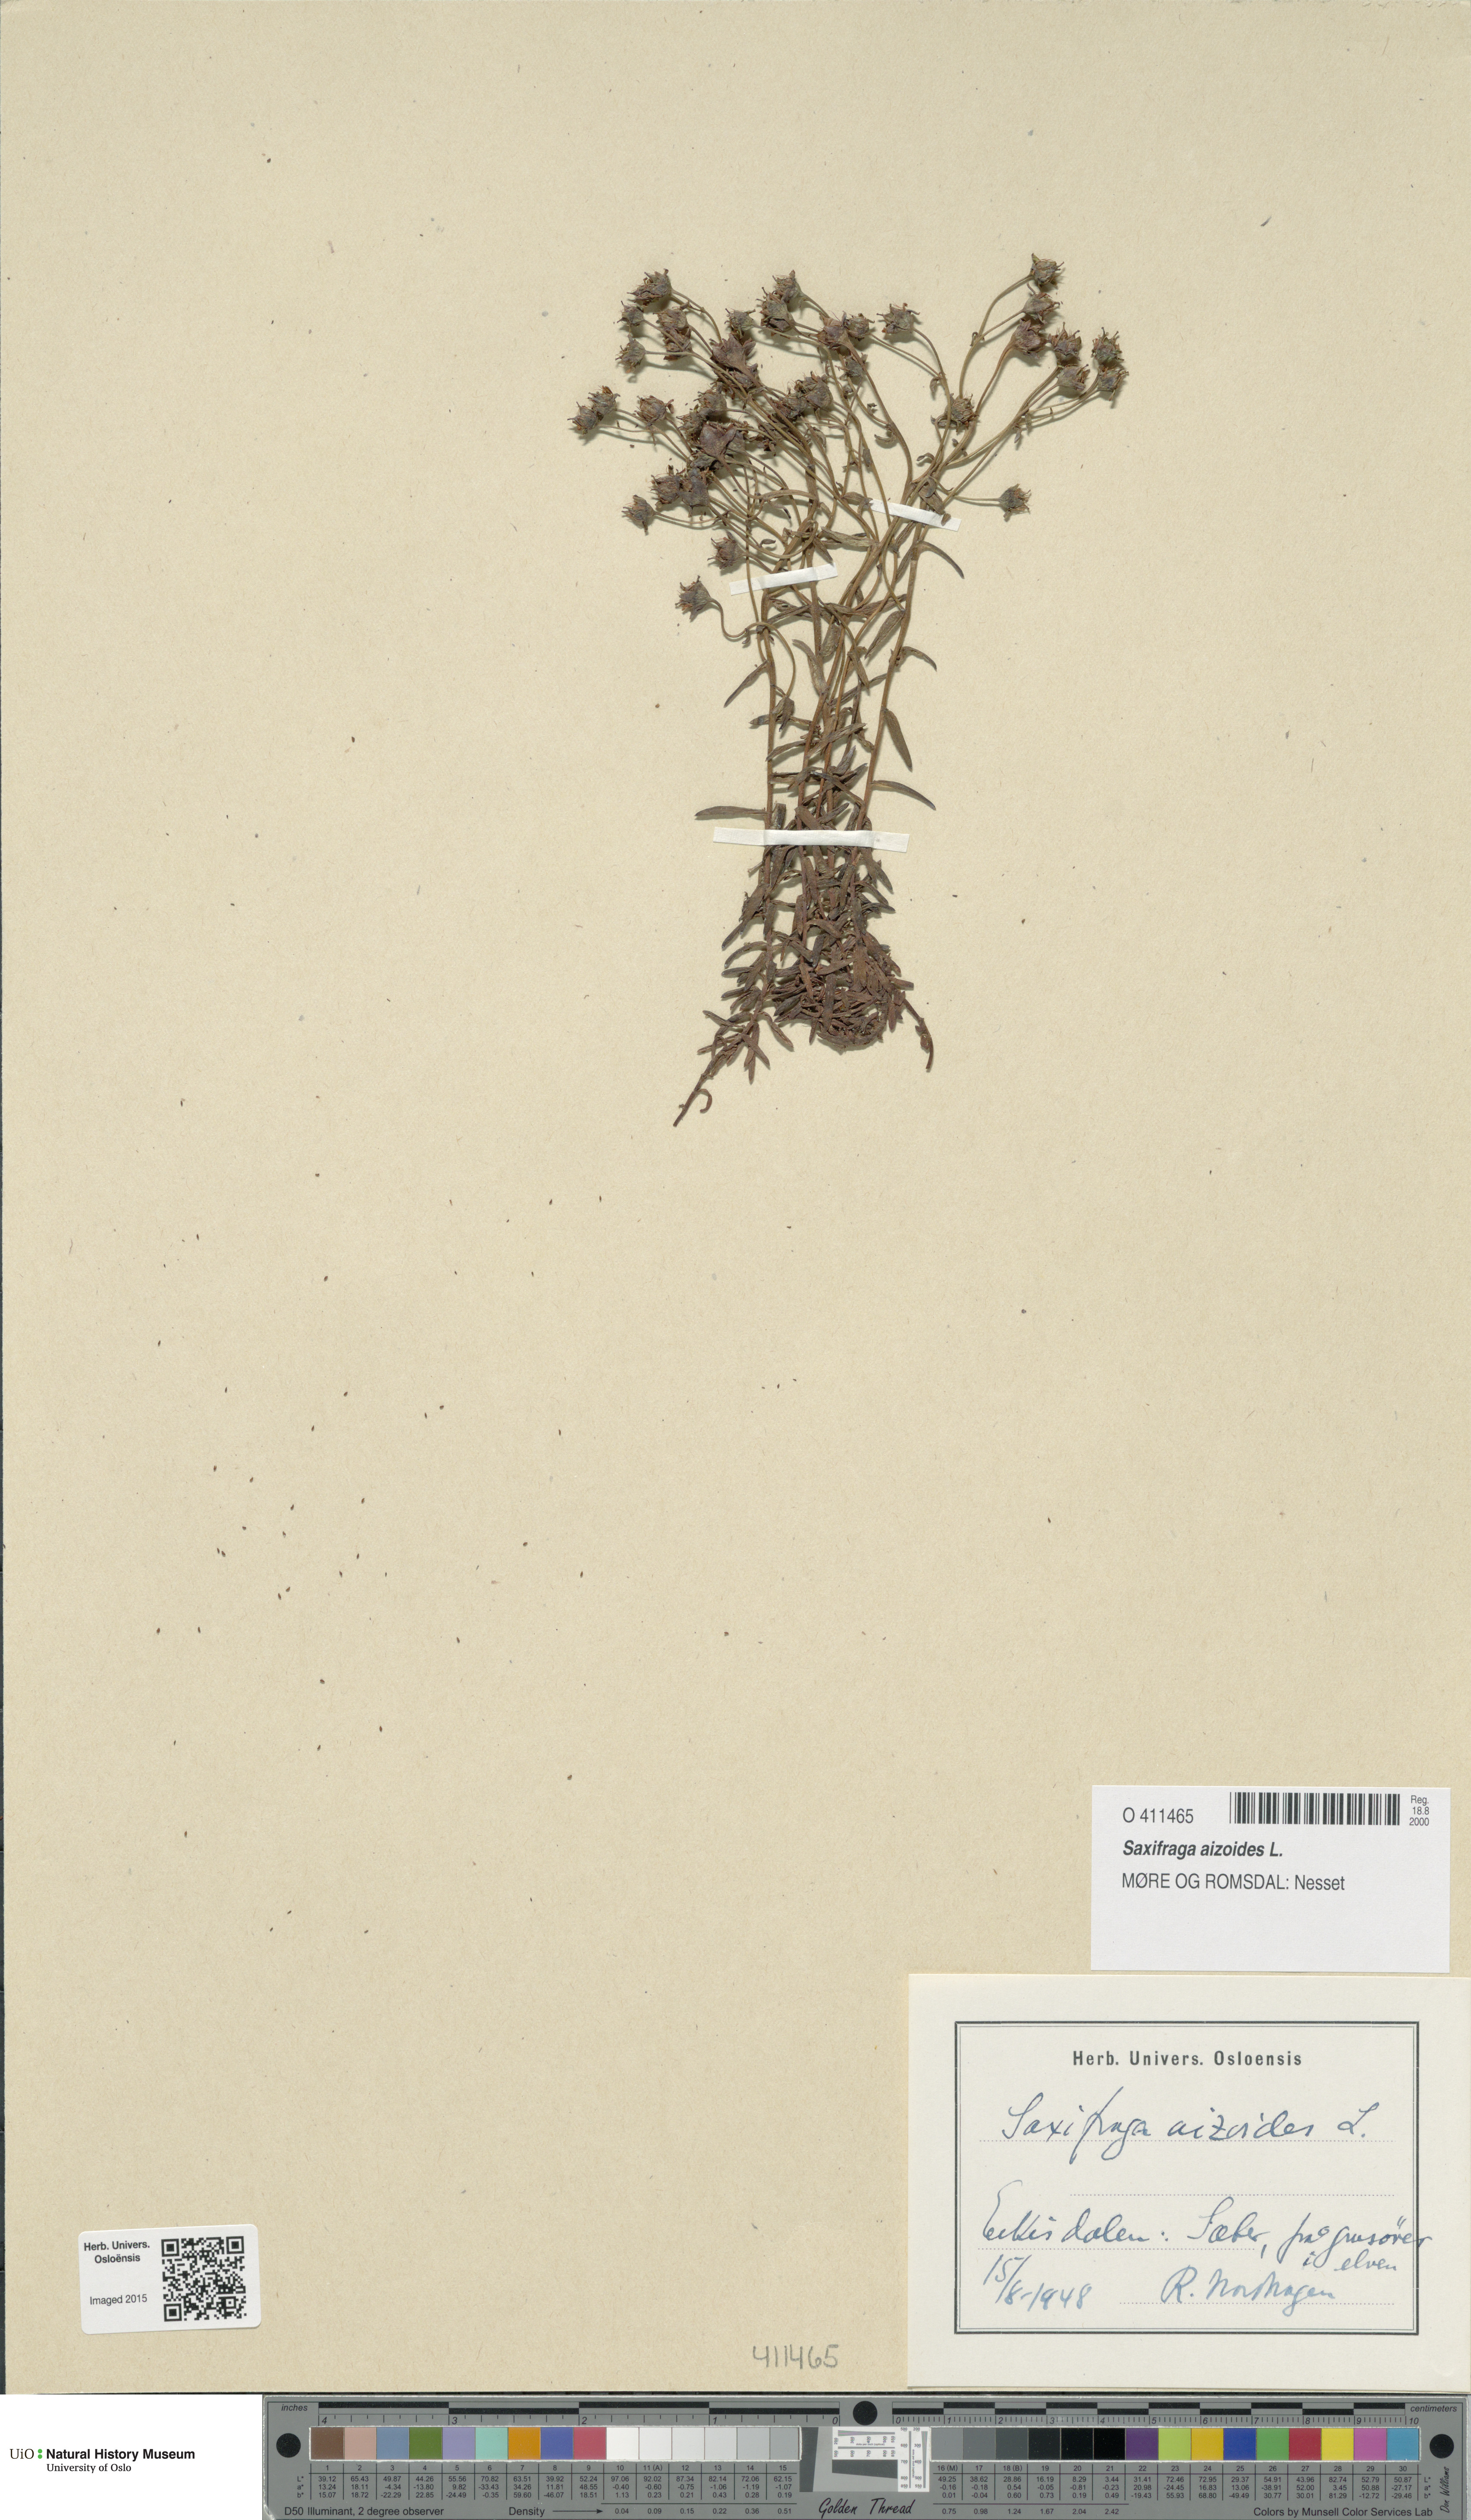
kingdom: Plantae
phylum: Tracheophyta
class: Magnoliopsida
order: Saxifragales
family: Saxifragaceae
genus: Saxifraga
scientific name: Saxifraga aizoides
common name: Yellow mountain saxifrage
